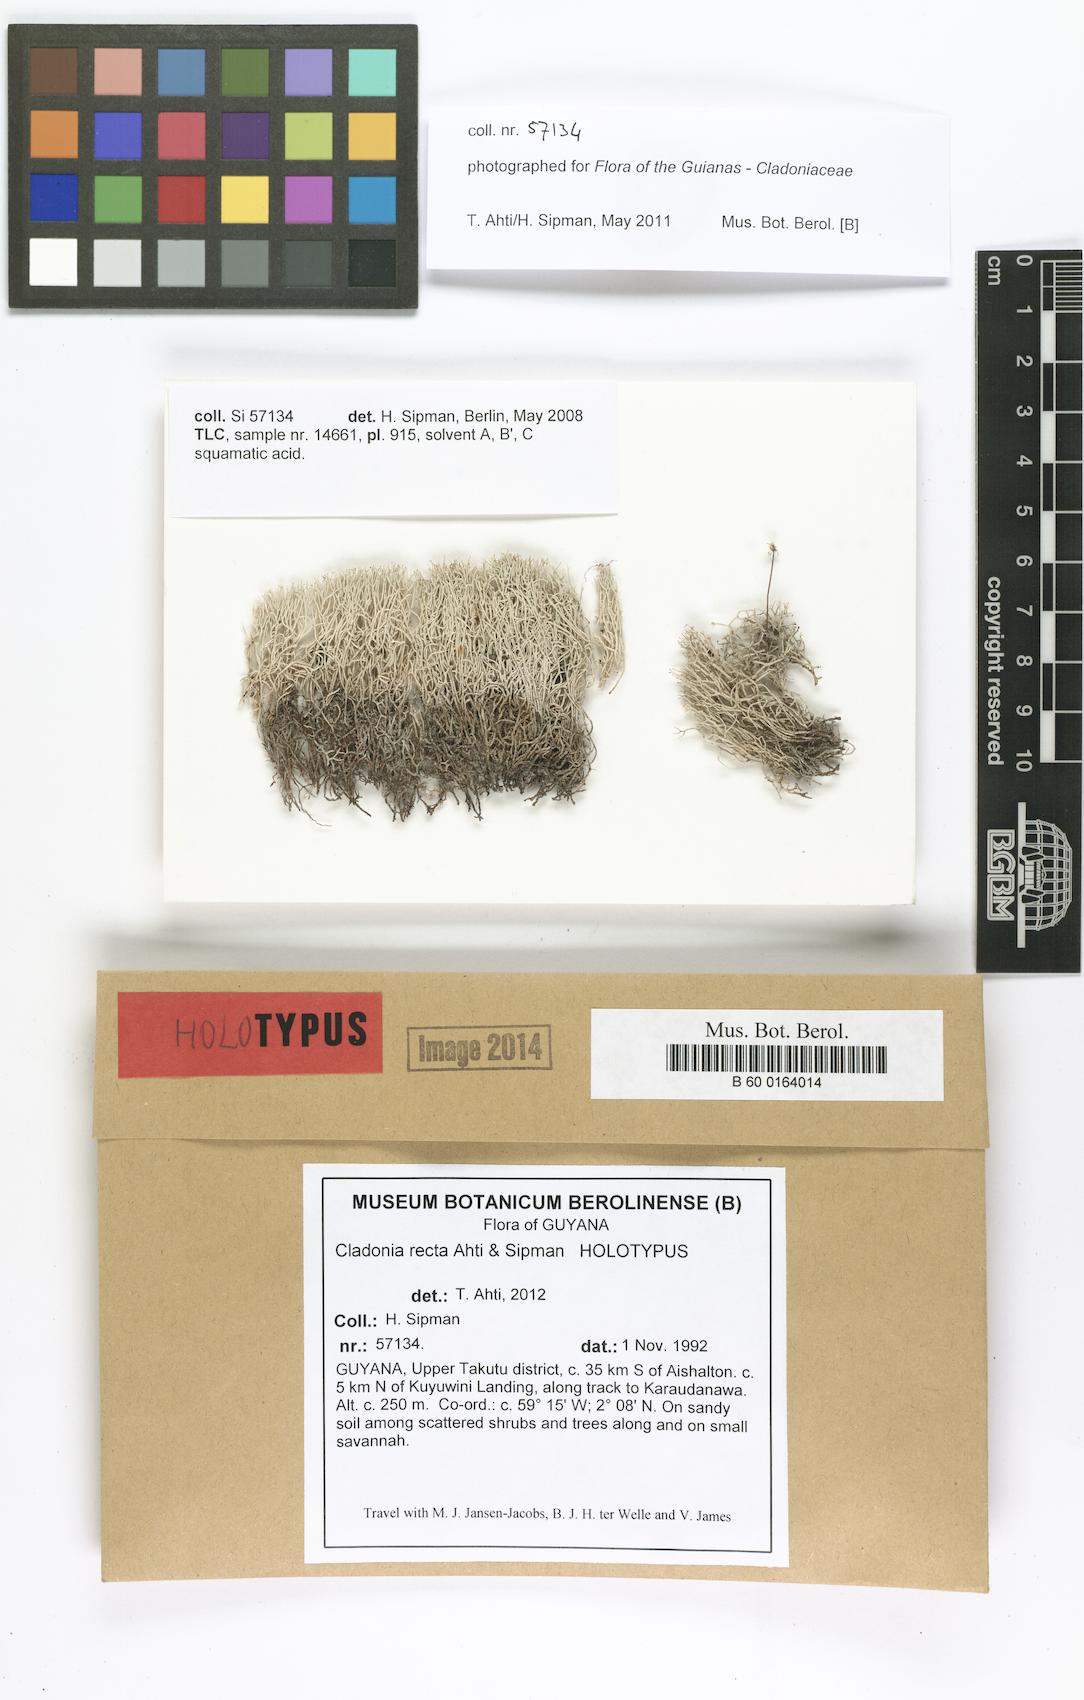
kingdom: Fungi
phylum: Ascomycota
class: Lecanoromycetes
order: Lecanorales
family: Cladoniaceae
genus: Cladonia
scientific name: Cladonia recta
